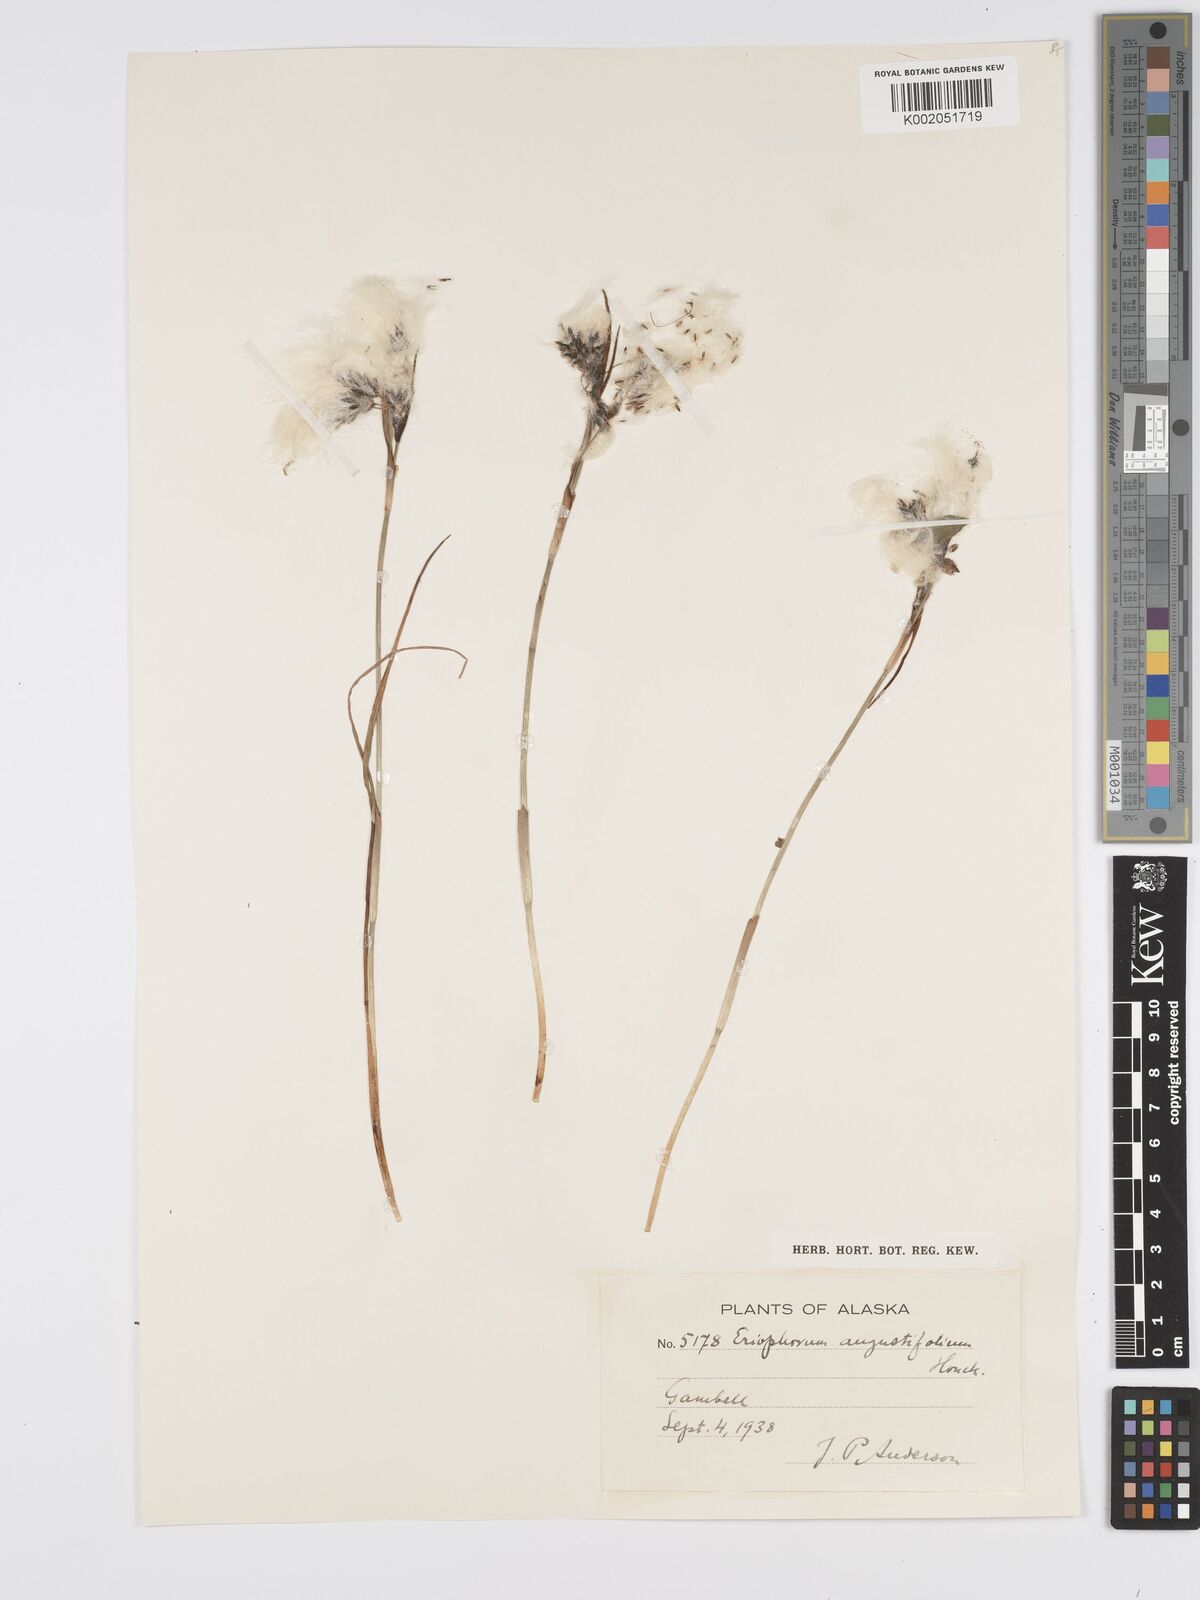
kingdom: Plantae
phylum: Tracheophyta
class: Liliopsida
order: Poales
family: Cyperaceae
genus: Eriophorum
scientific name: Eriophorum angustifolium
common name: Common cottongrass
